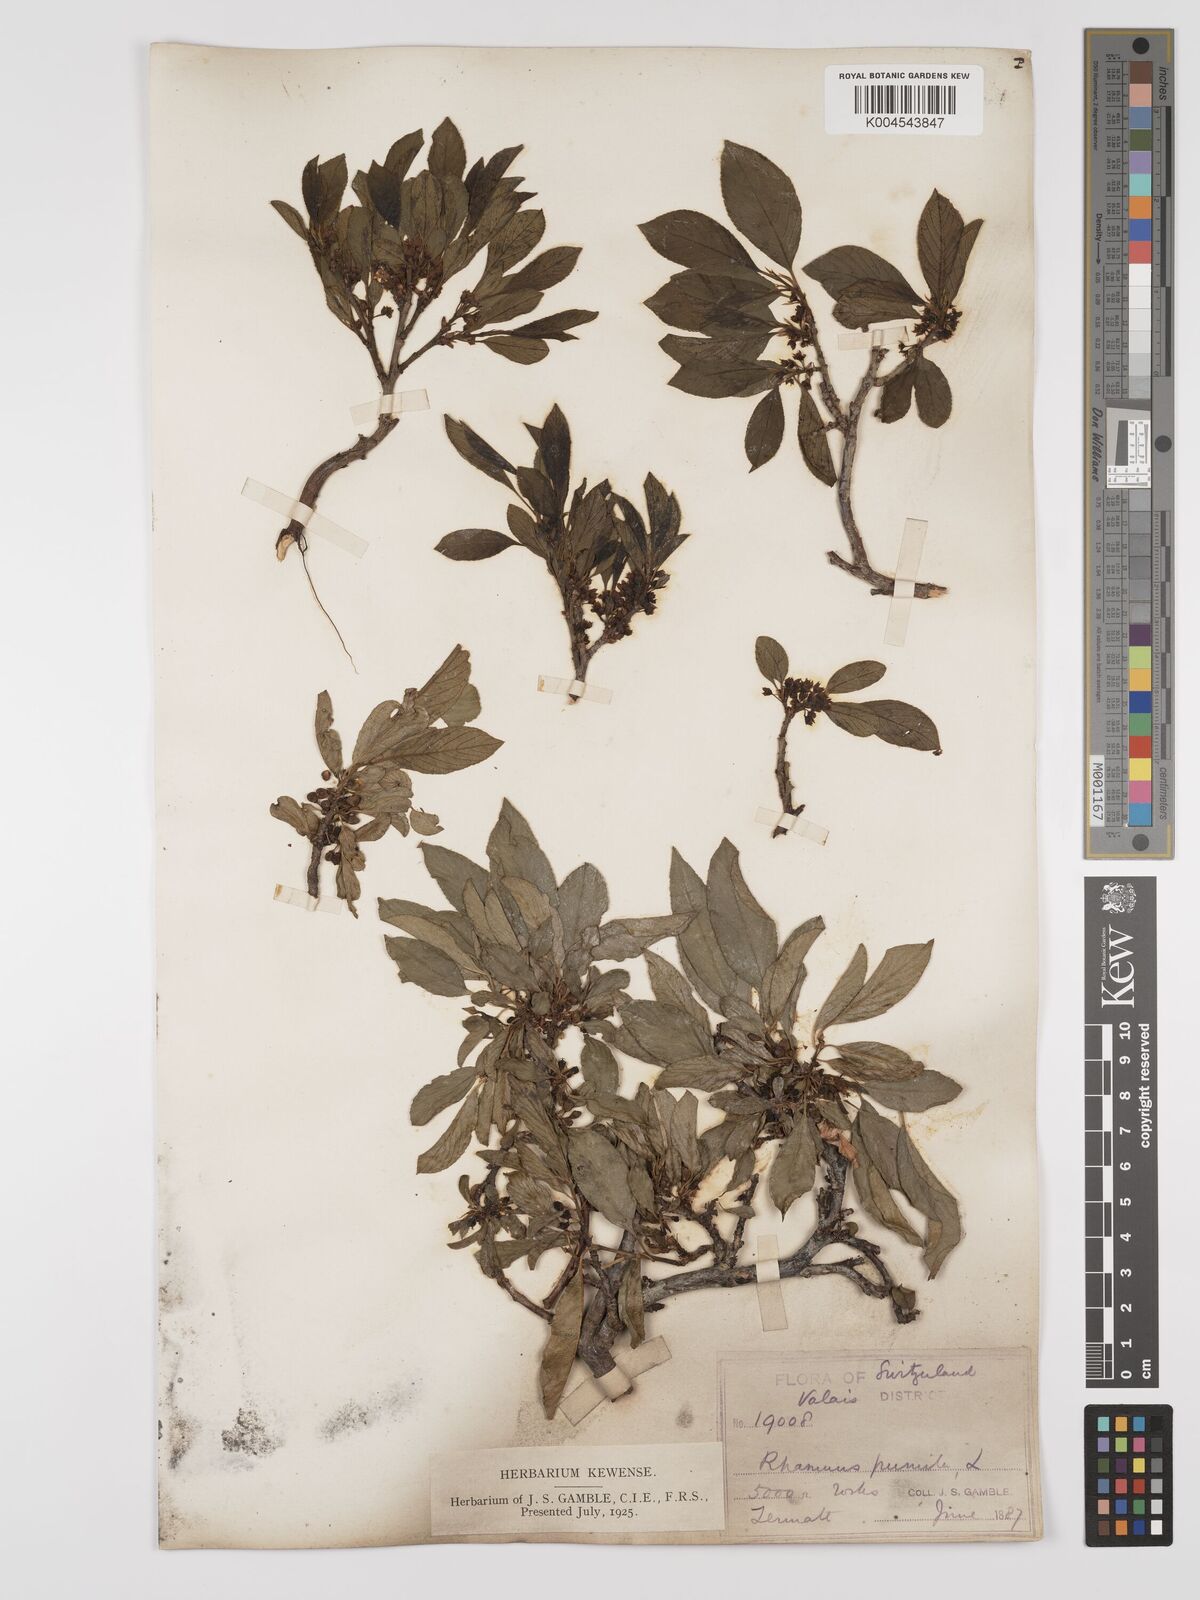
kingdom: Plantae
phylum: Tracheophyta
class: Magnoliopsida
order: Rosales
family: Rhamnaceae
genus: Rhamnus
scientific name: Rhamnus
